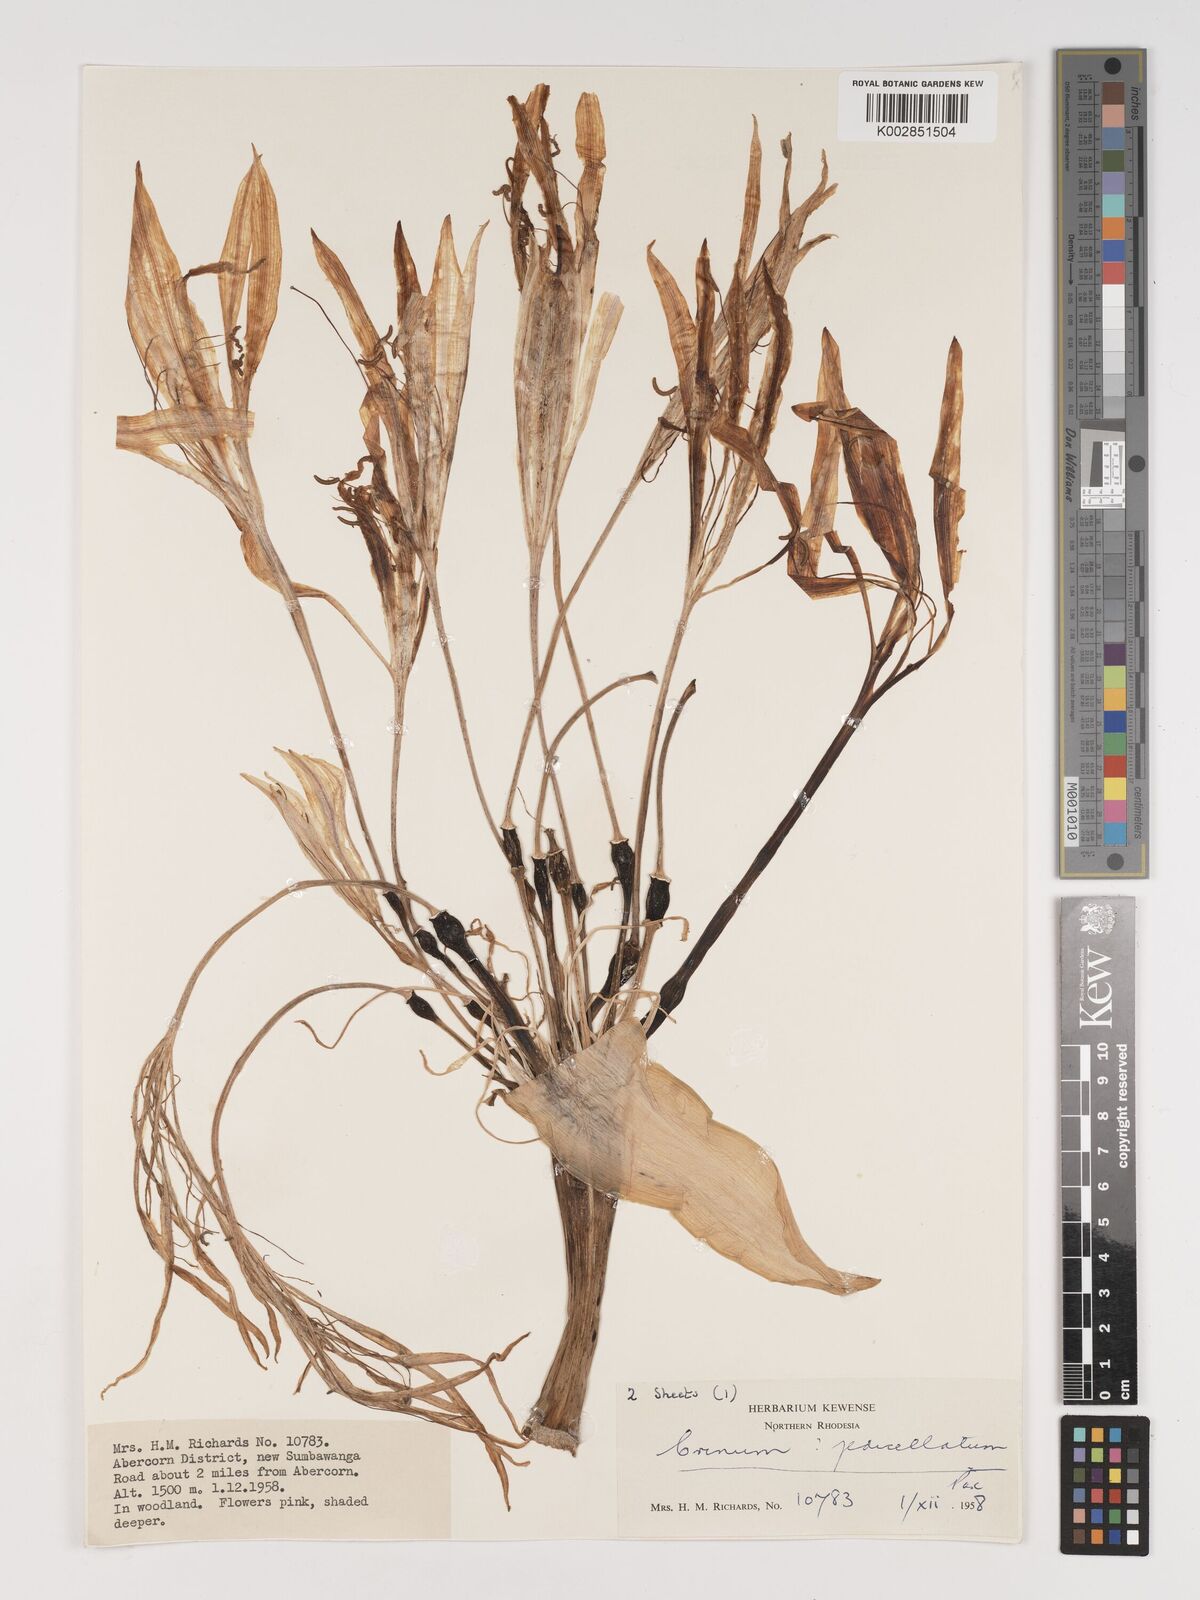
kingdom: Plantae
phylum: Tracheophyta
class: Liliopsida
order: Asparagales
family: Amaryllidaceae
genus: Crinum
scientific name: Crinum stuhlmannii
